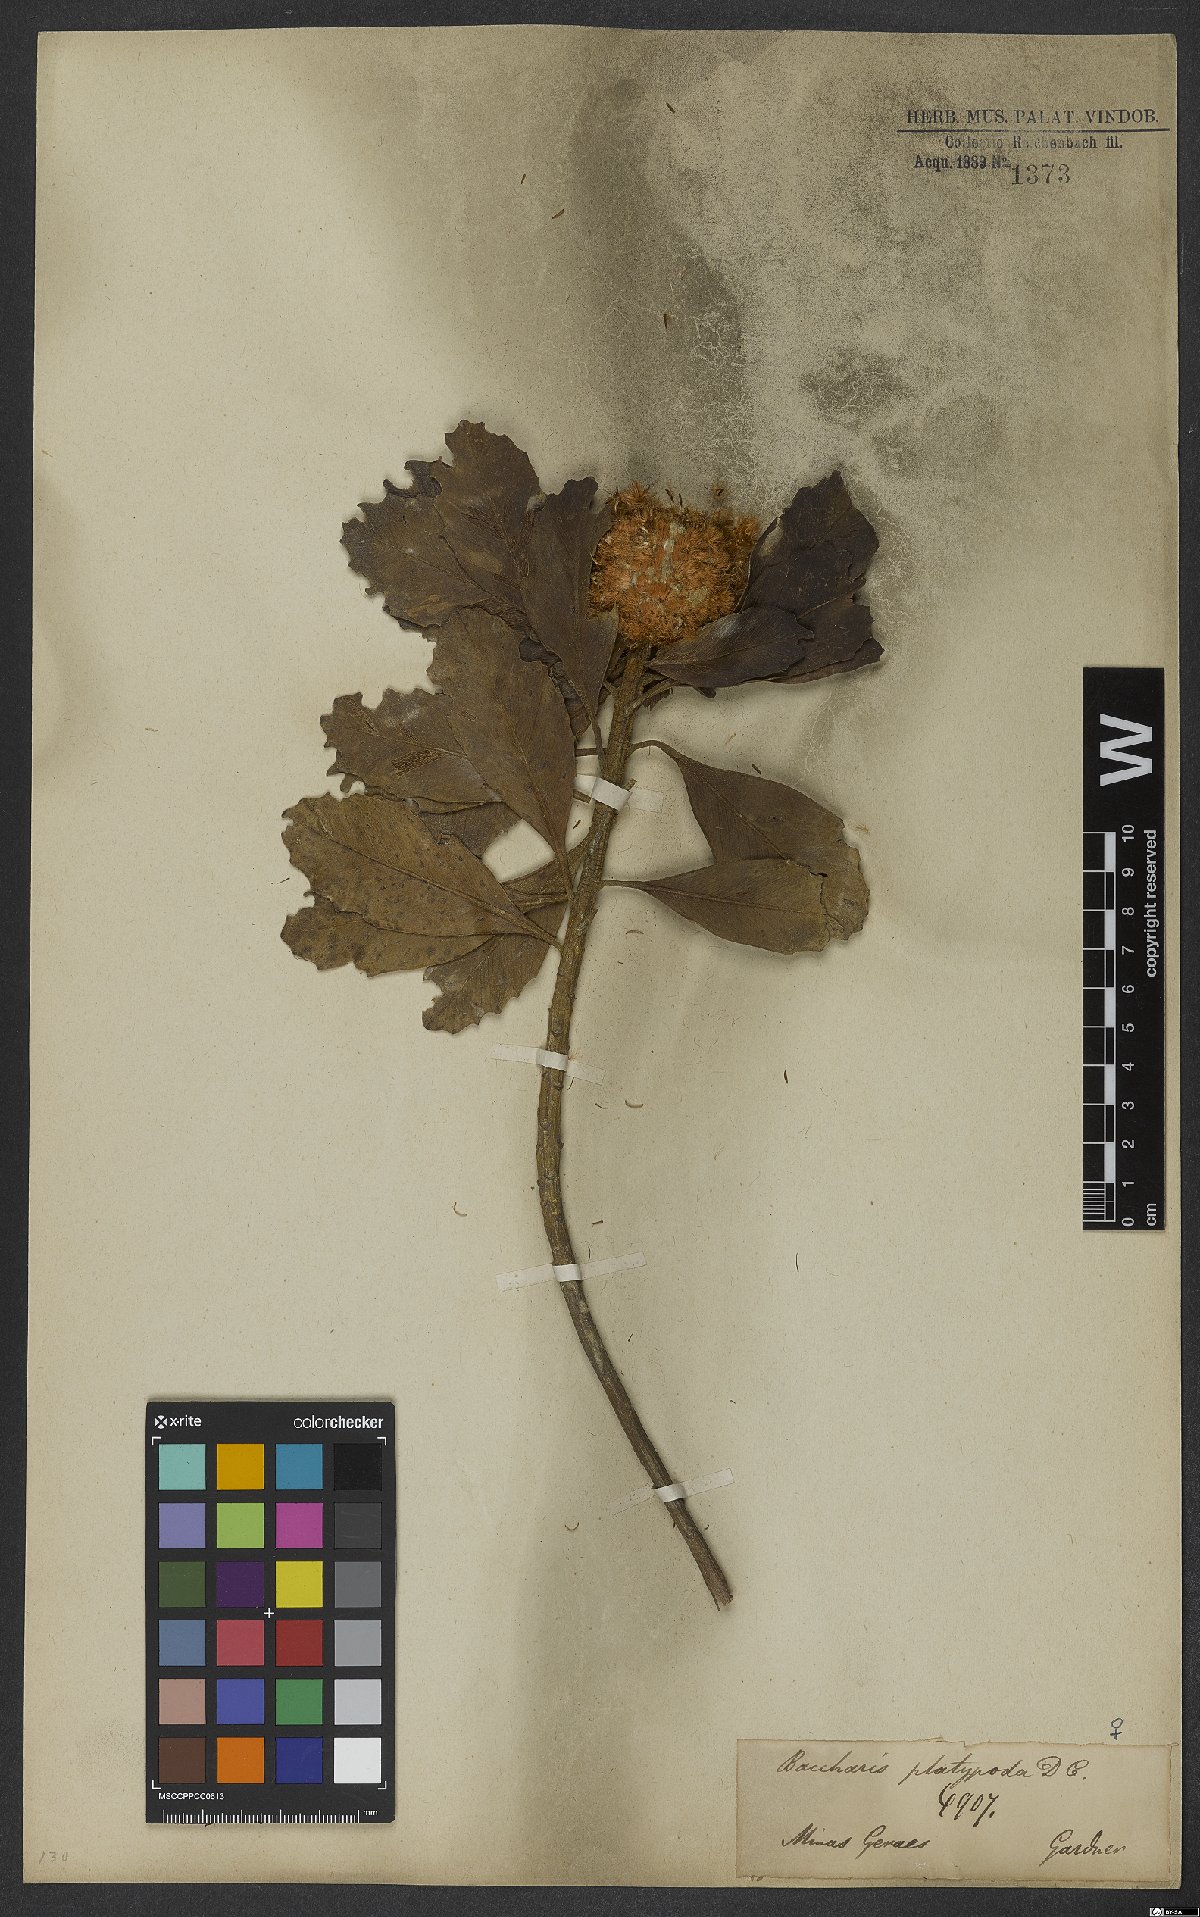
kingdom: Plantae
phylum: Tracheophyta
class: Magnoliopsida
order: Asterales
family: Asteraceae
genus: Baccharis
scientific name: Baccharis platypoda
